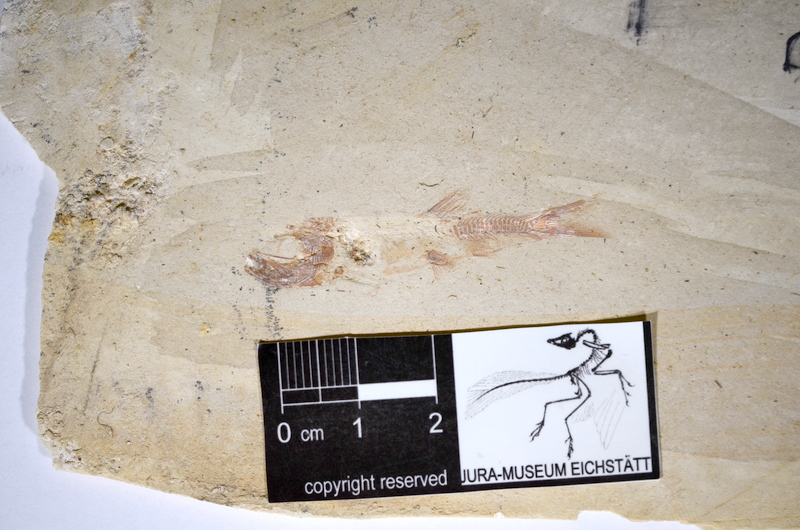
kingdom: Animalia
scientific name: Animalia
